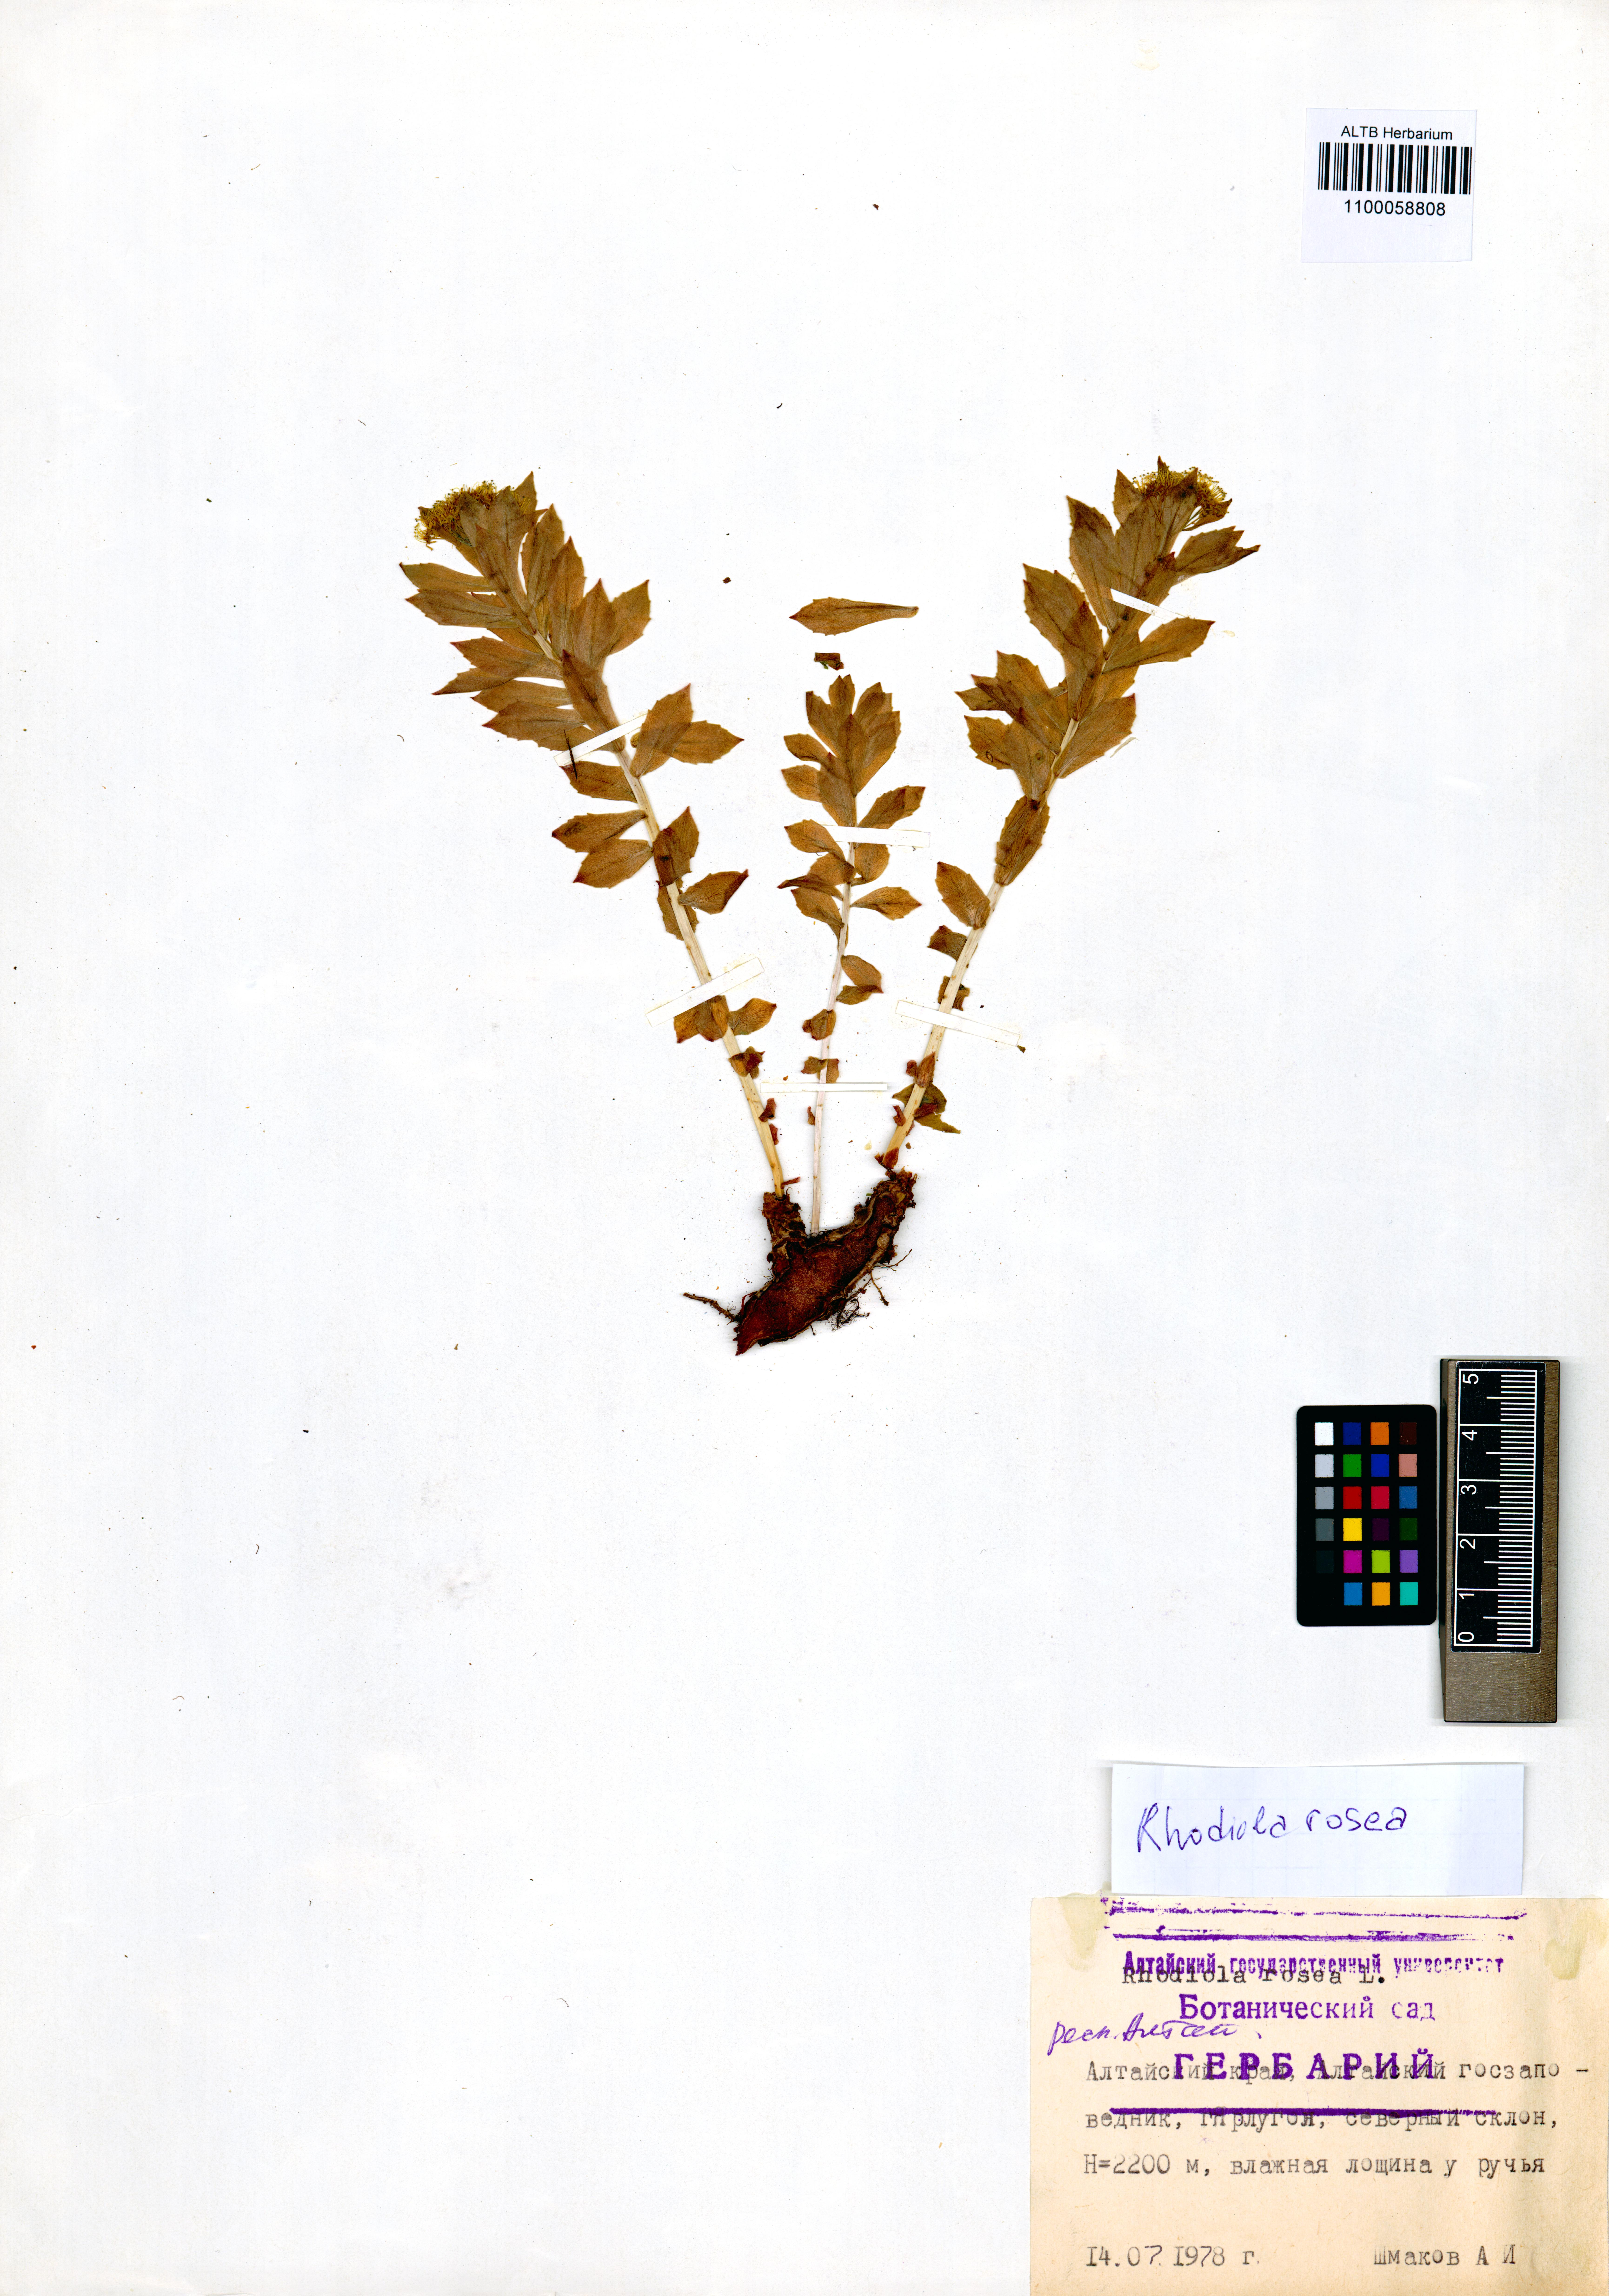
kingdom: Plantae
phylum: Tracheophyta
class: Magnoliopsida
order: Saxifragales
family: Crassulaceae
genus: Rhodiola
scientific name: Rhodiola rosea
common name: Roseroot
